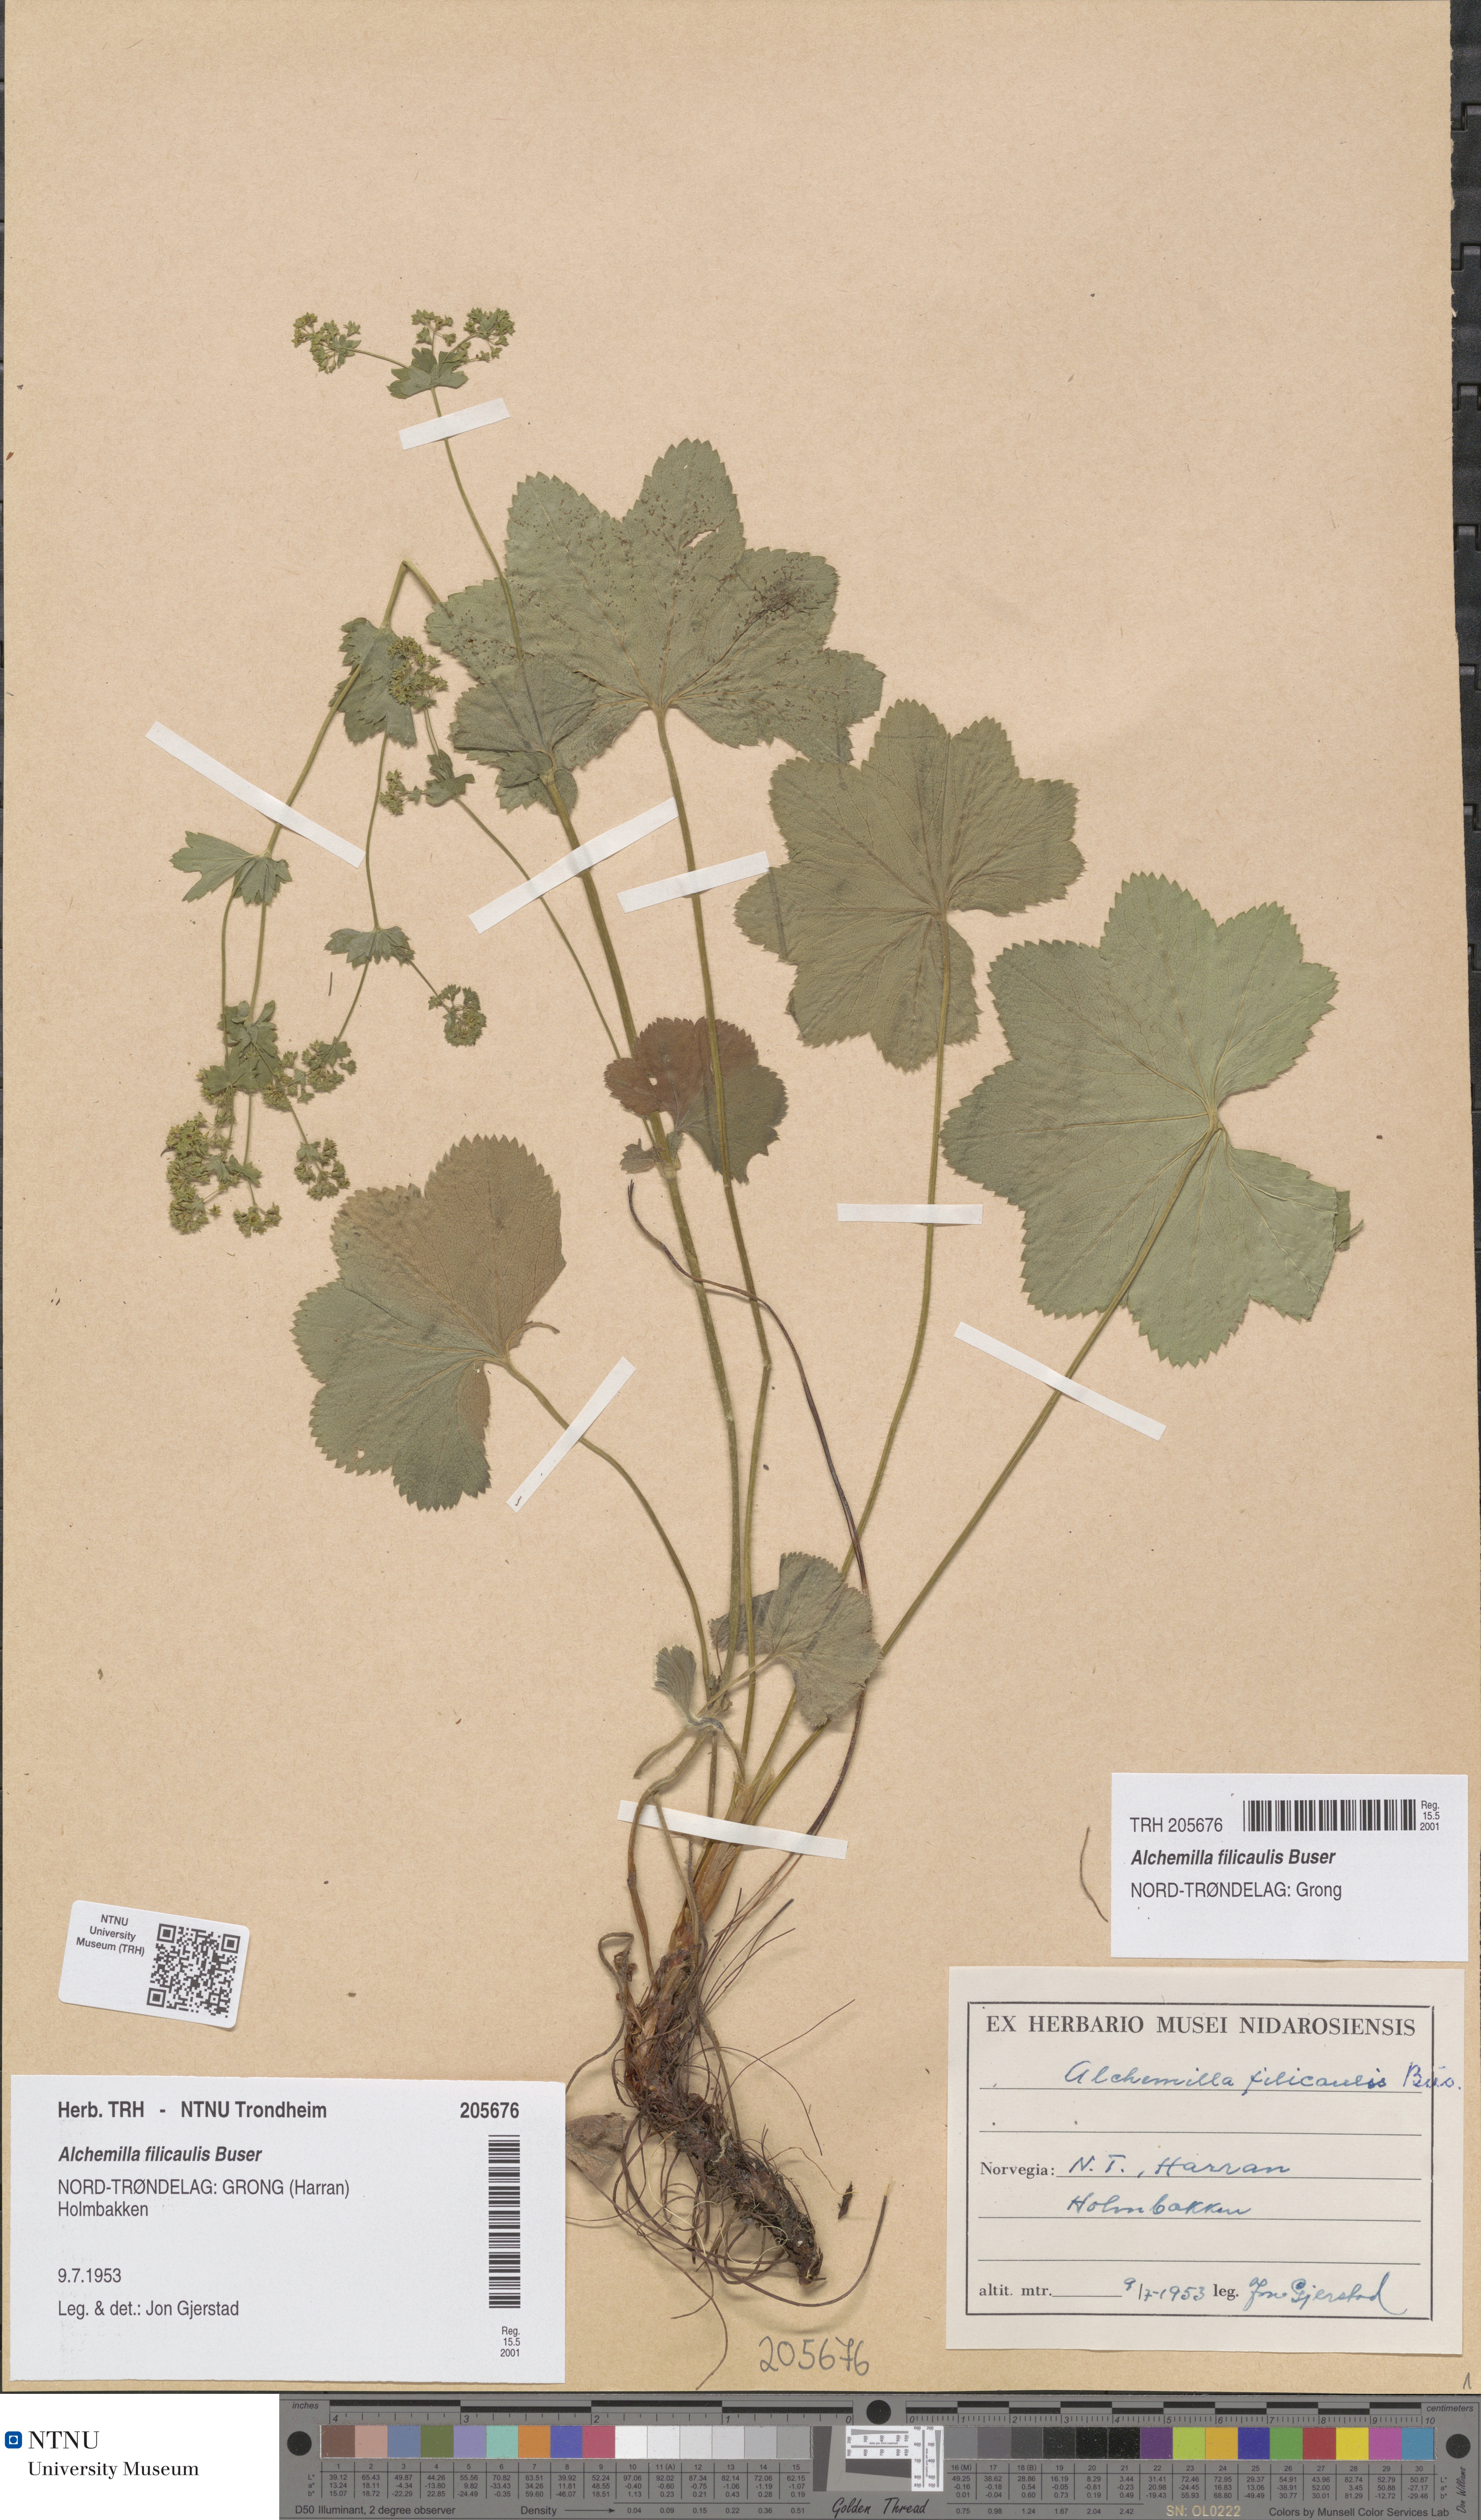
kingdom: Plantae
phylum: Tracheophyta
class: Magnoliopsida
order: Rosales
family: Rosaceae
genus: Alchemilla
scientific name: Alchemilla filicaulis
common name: Hairy lady's-mantle
